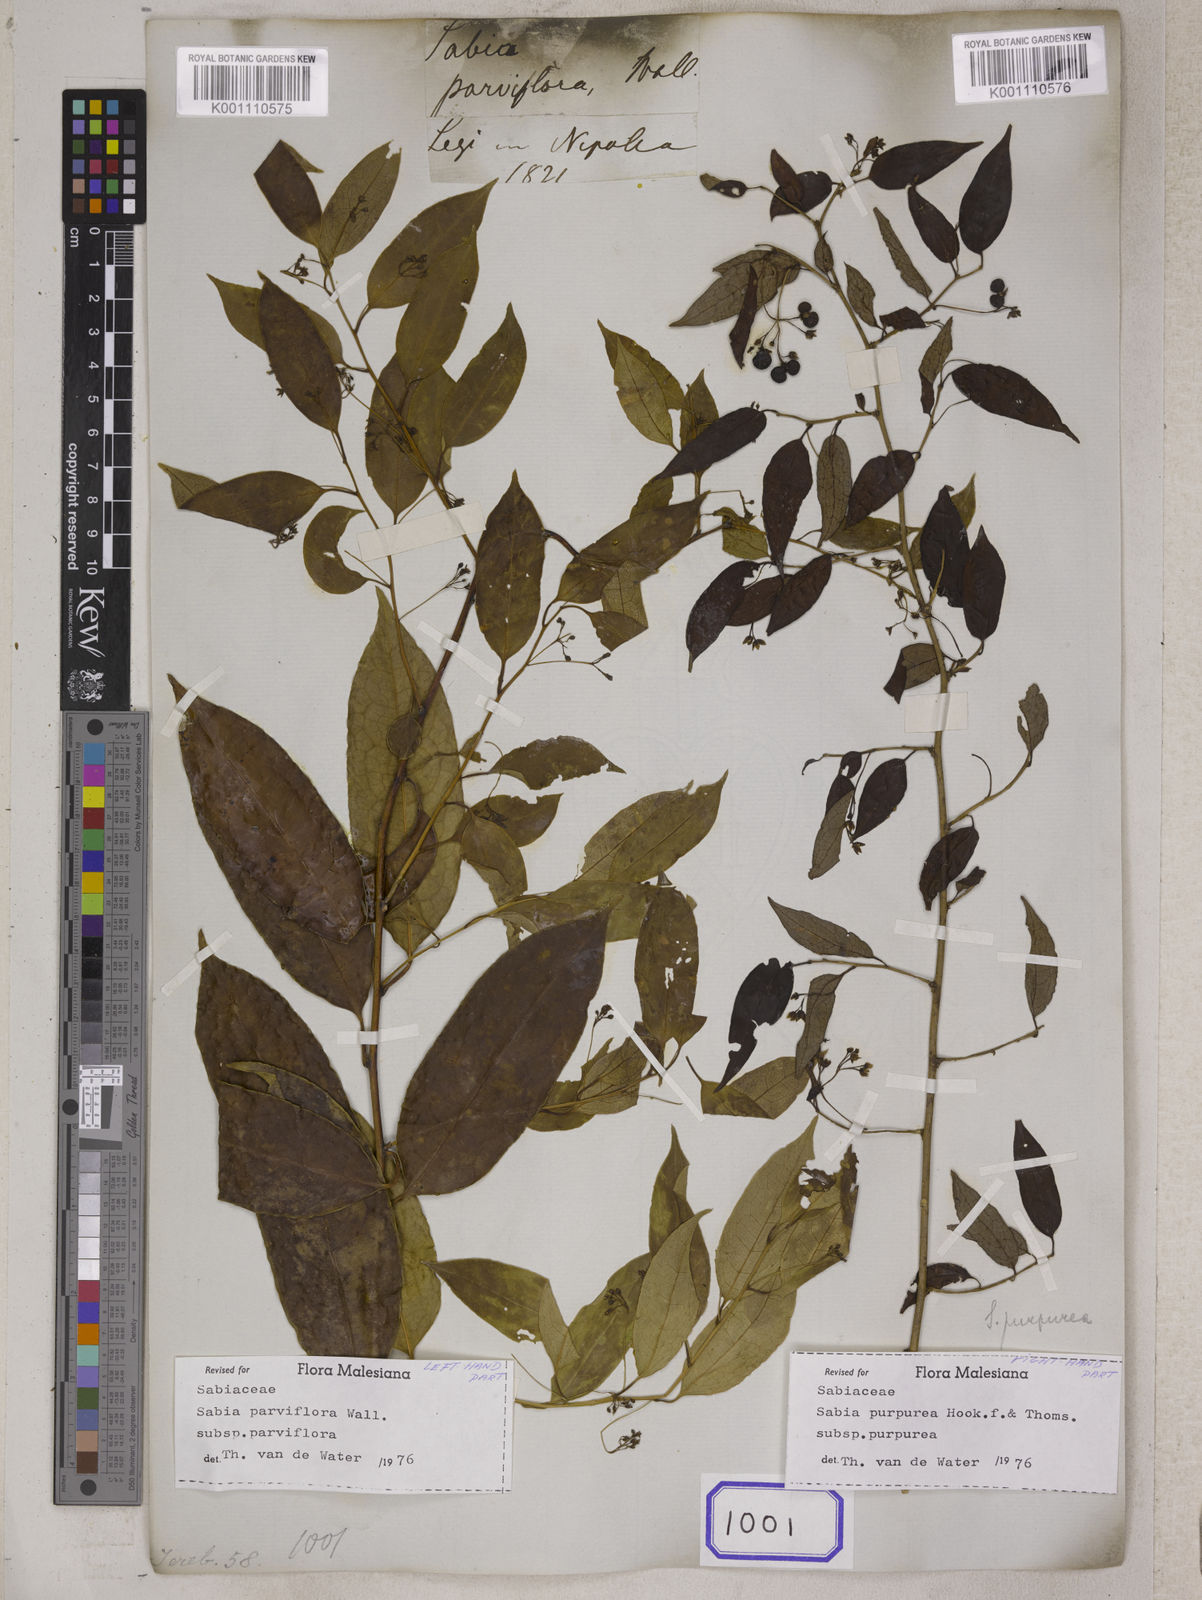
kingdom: Plantae
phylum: Tracheophyta
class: Magnoliopsida
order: Proteales
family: Sabiaceae
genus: Sabia
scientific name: Sabia parviflora
